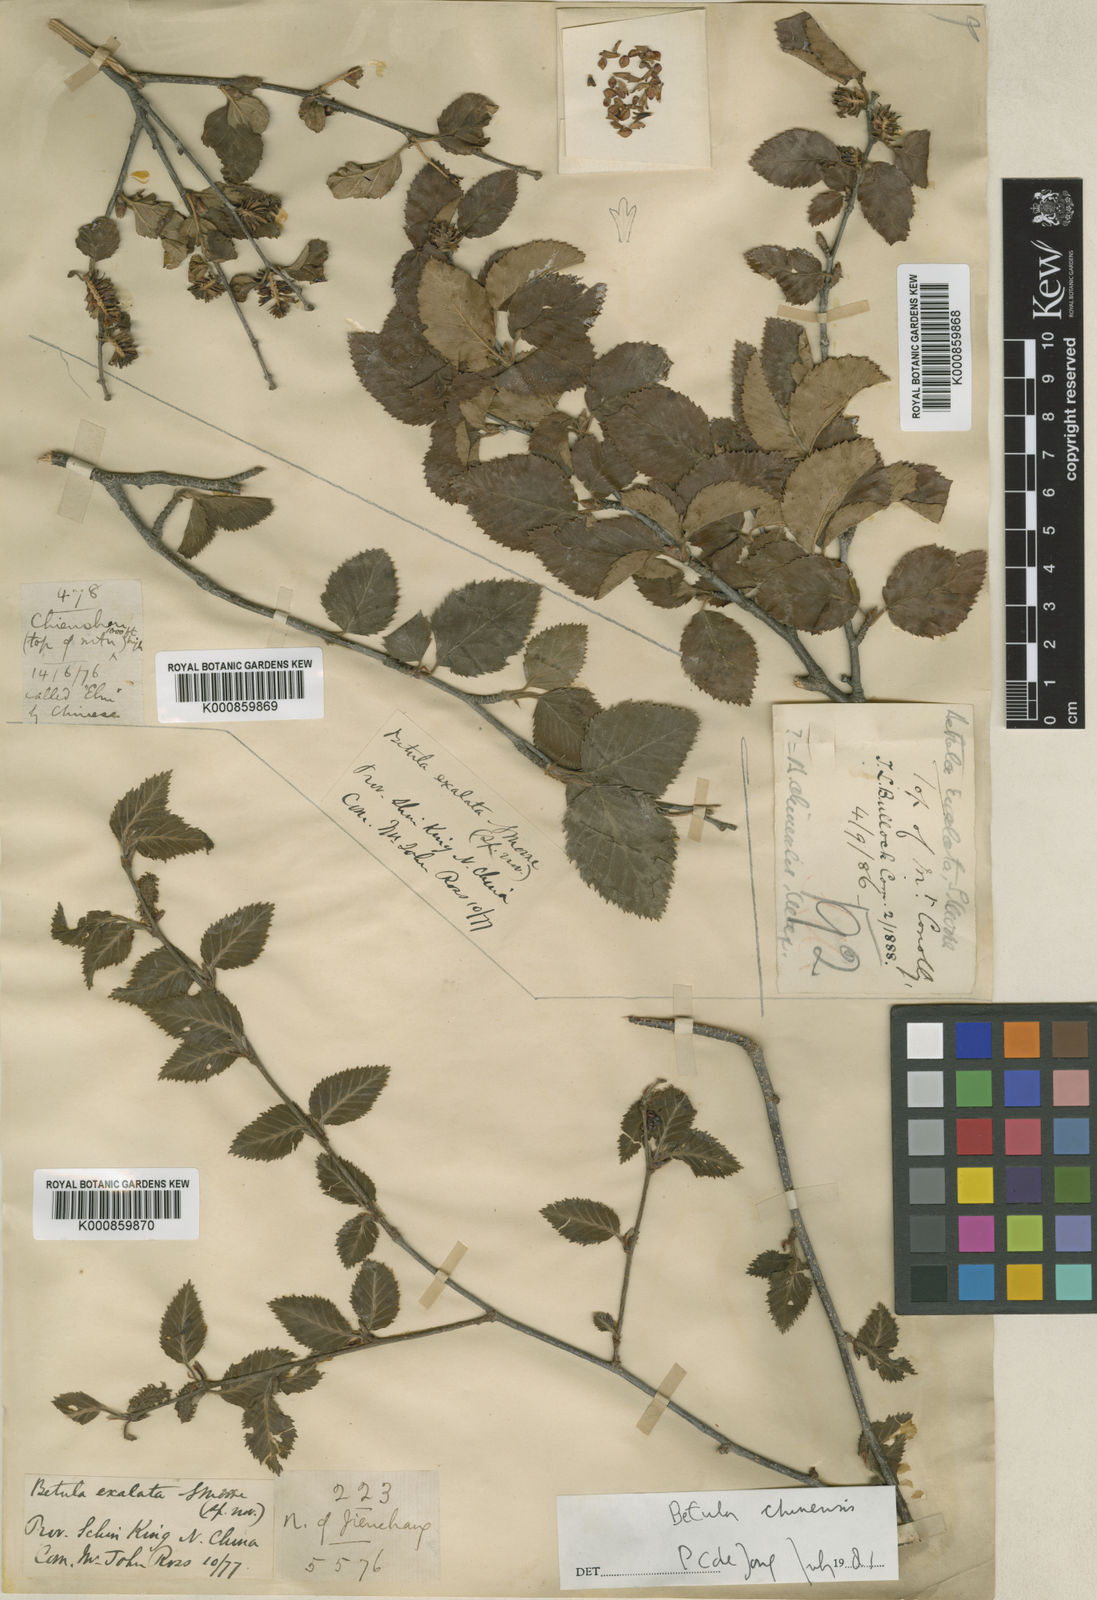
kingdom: Plantae
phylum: Tracheophyta
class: Magnoliopsida
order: Fagales
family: Betulaceae
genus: Betula
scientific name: Betula chinensis
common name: China birch
